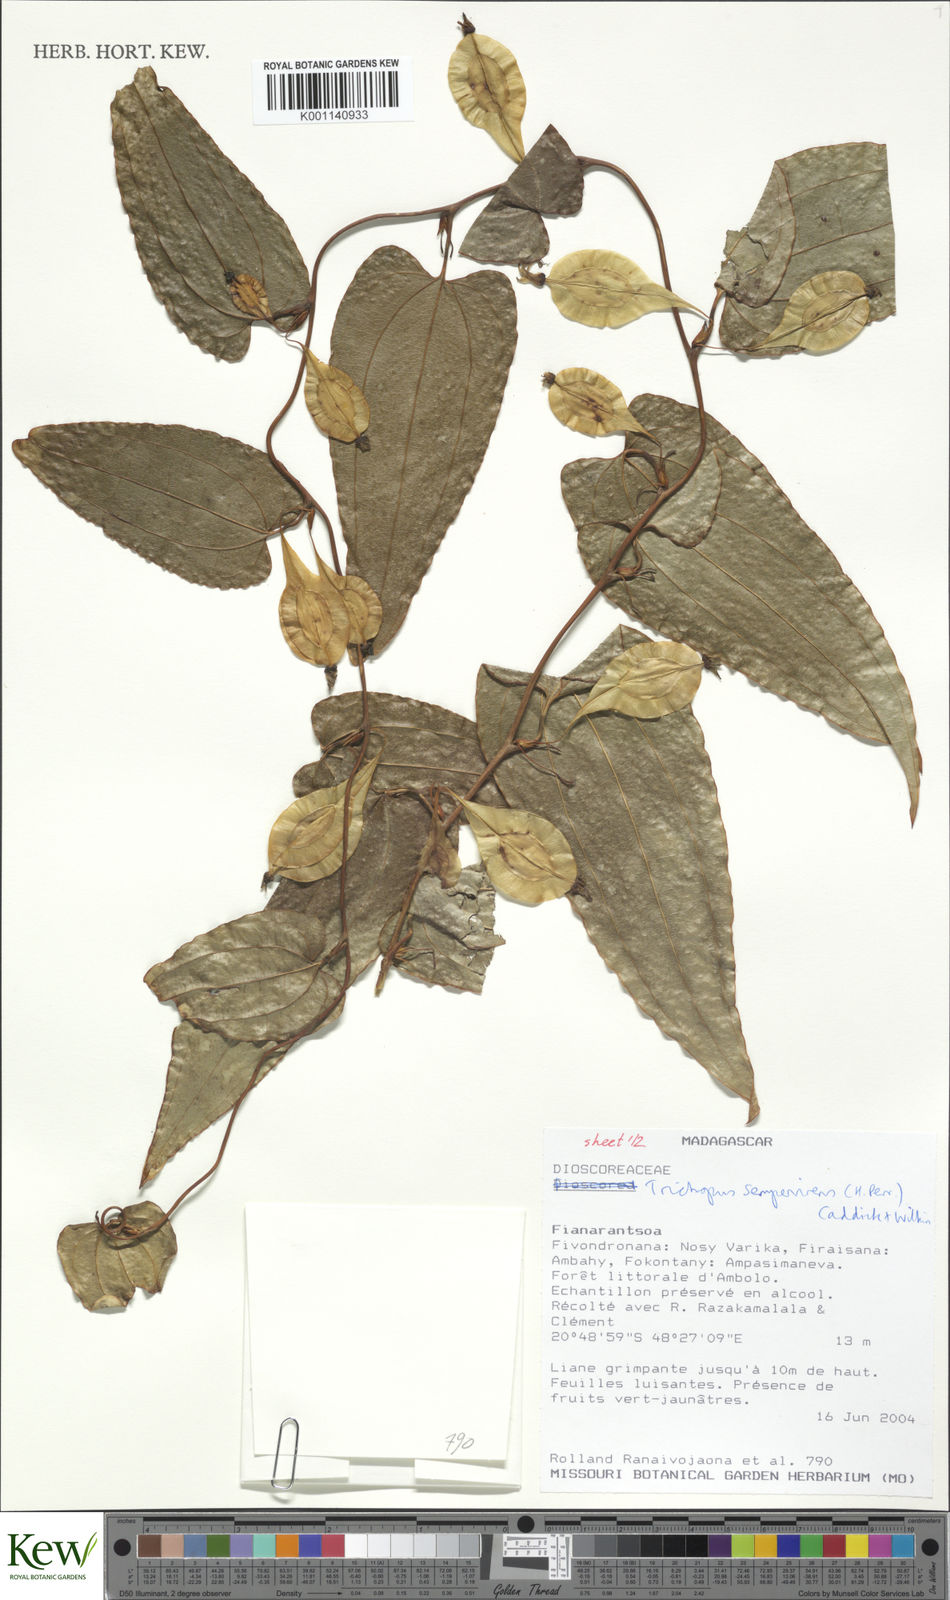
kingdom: Plantae
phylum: Tracheophyta
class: Liliopsida
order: Dioscoreales
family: Dioscoreaceae
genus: Trichopus
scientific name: Trichopus sempervirens
